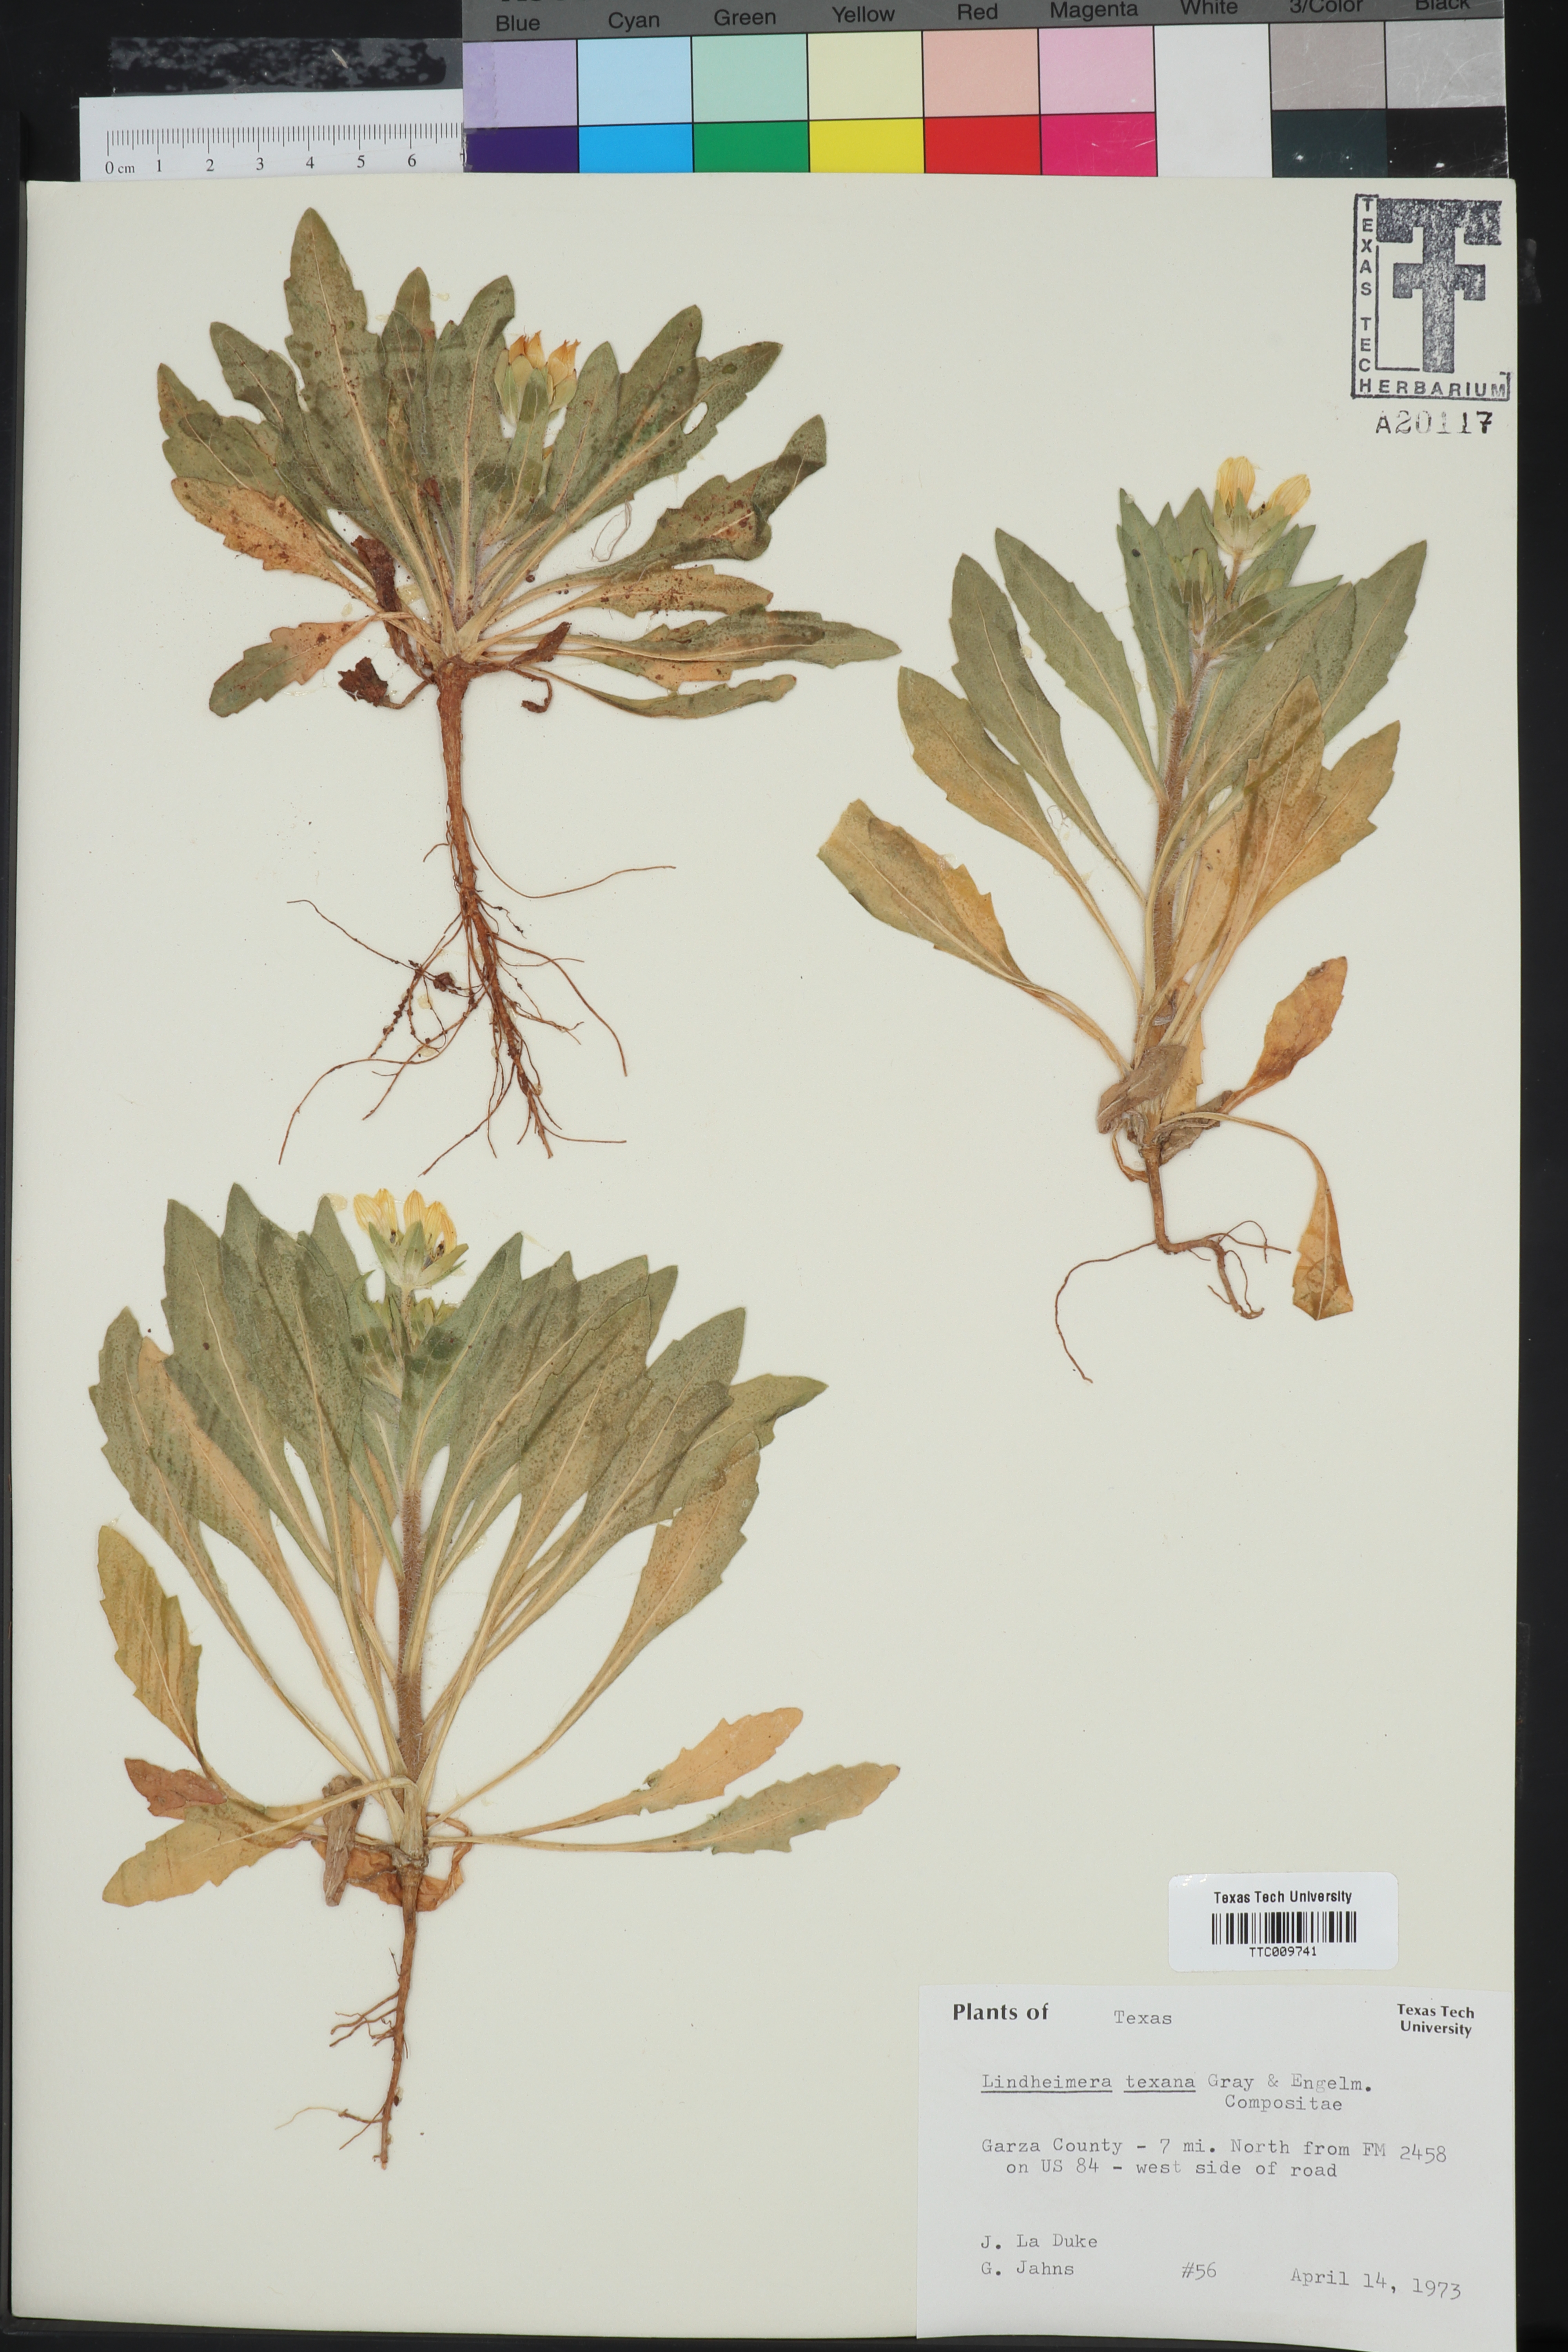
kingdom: Plantae
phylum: Tracheophyta
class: Magnoliopsida
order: Asterales
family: Asteraceae
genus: Lindheimera
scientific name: Lindheimera texana
